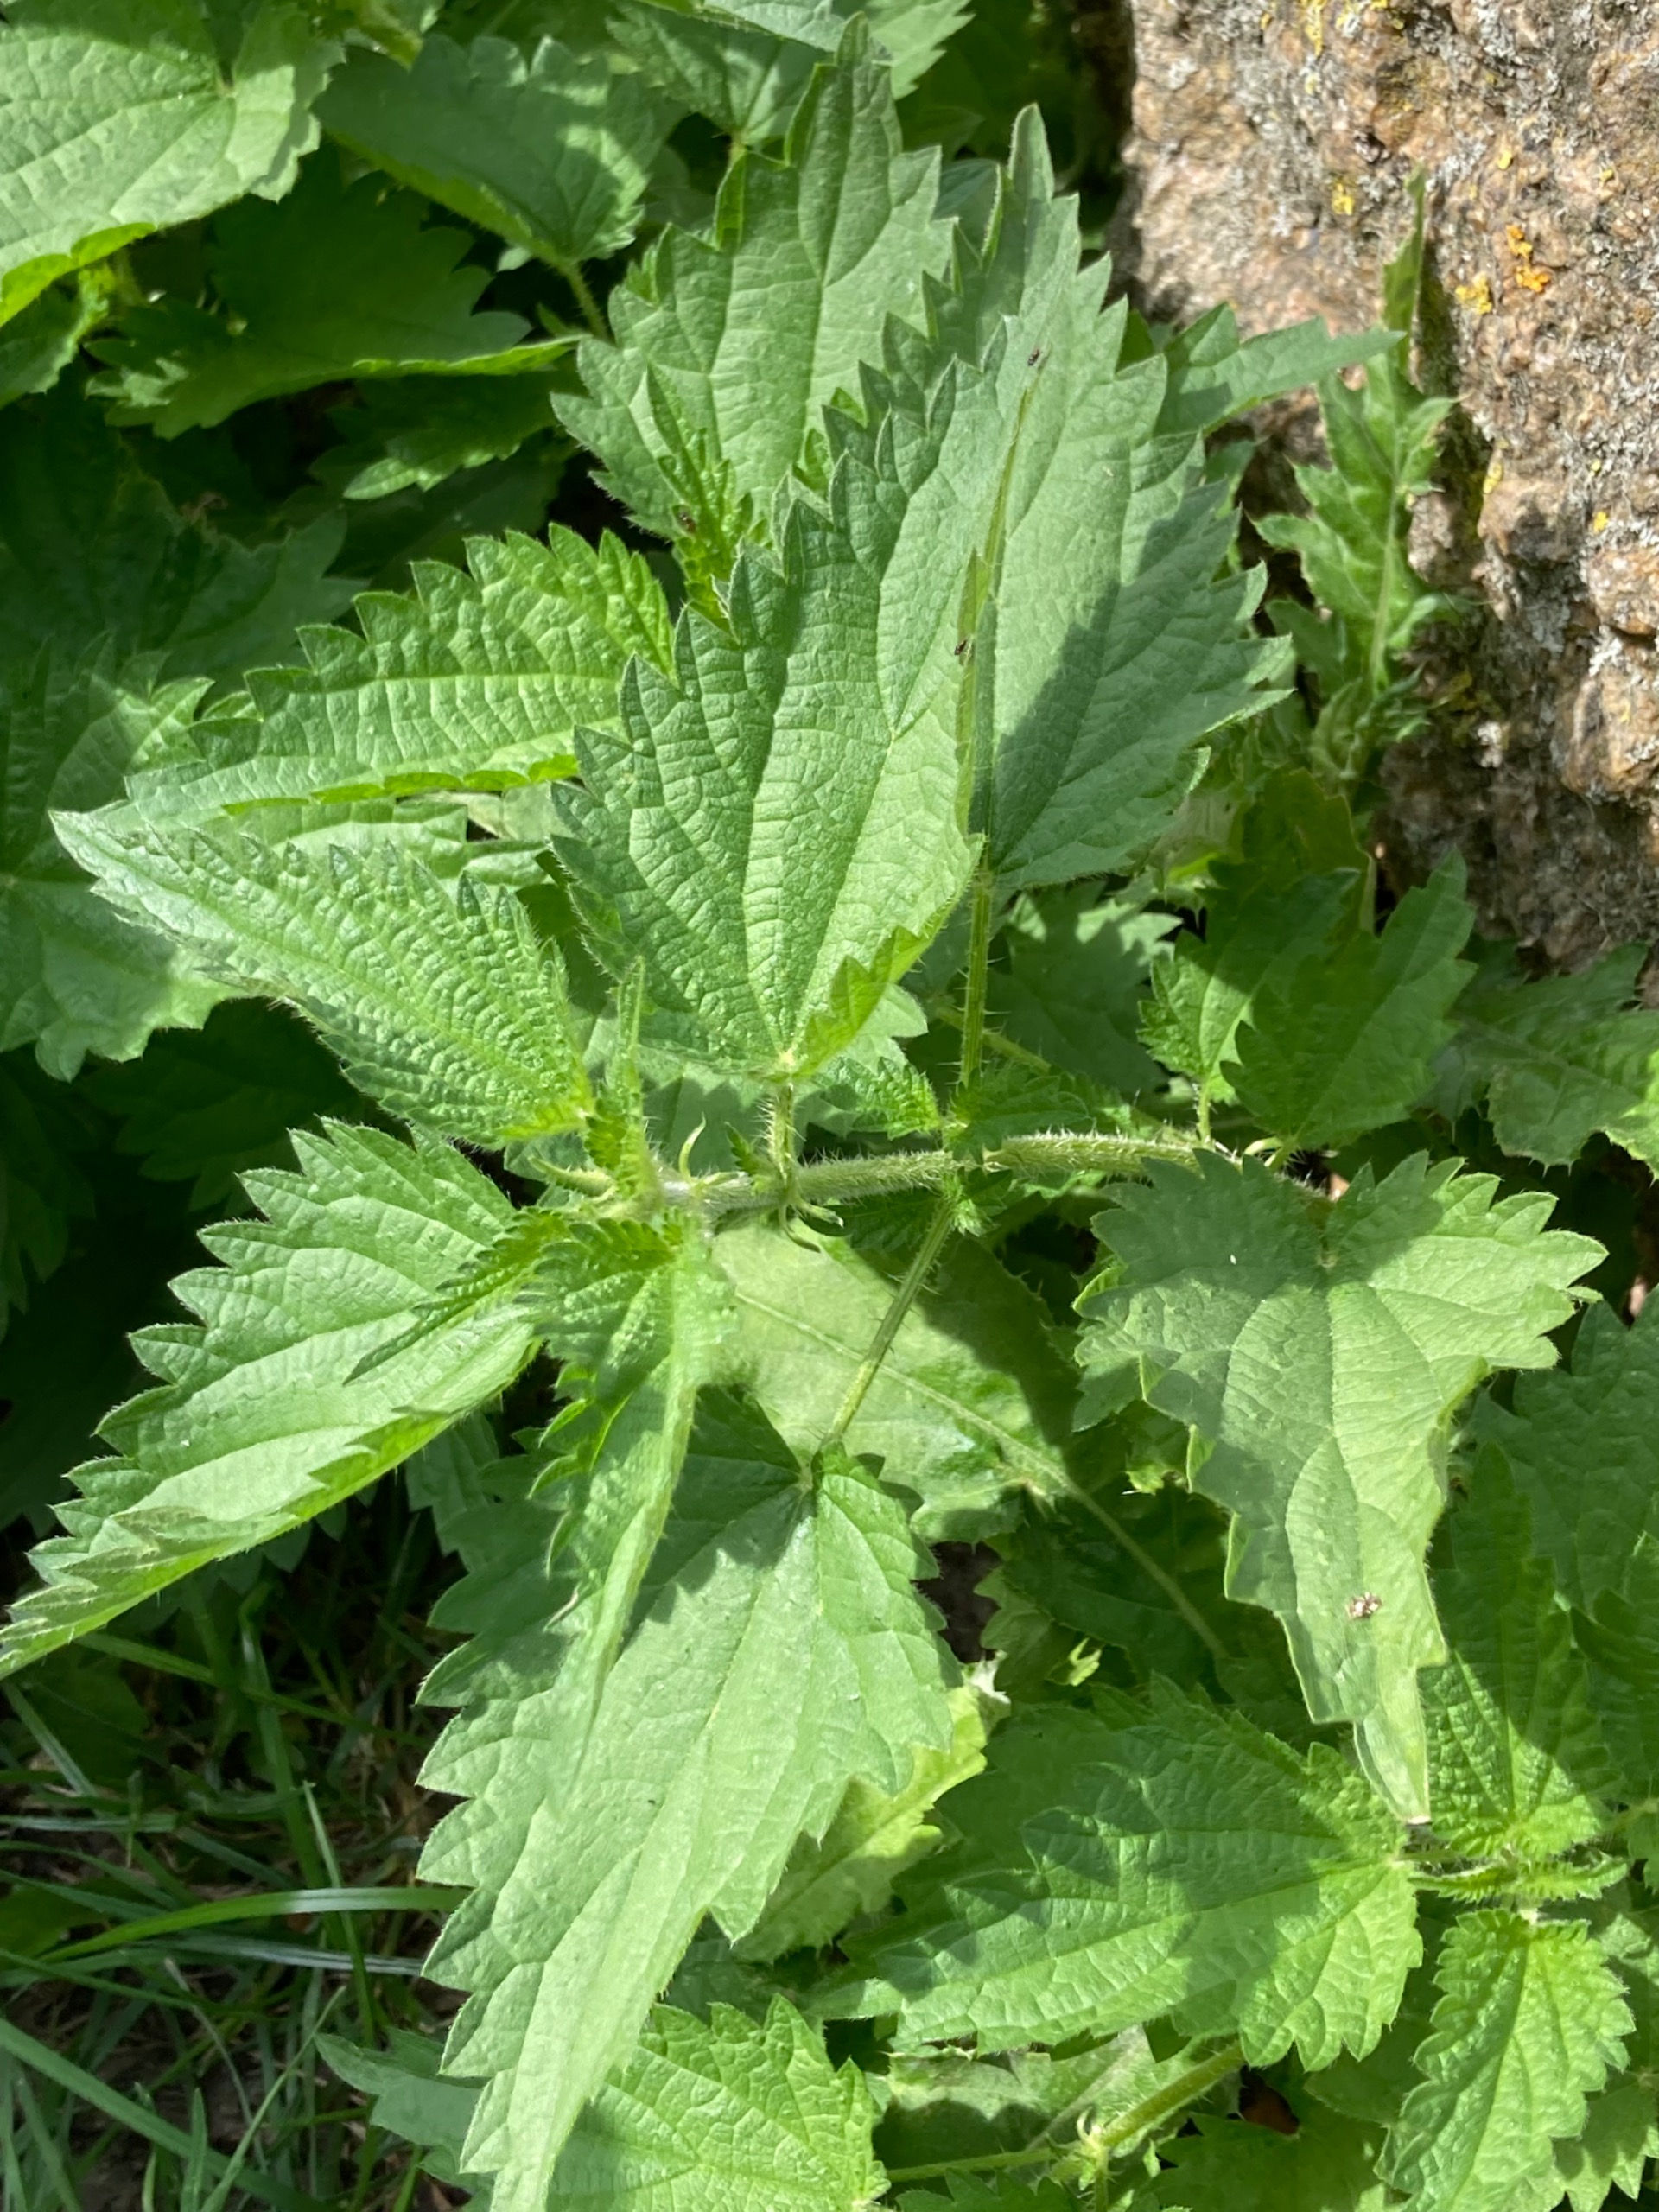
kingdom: Plantae
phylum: Tracheophyta
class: Magnoliopsida
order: Rosales
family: Urticaceae
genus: Urtica
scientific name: Urtica dioica
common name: Stor nælde
